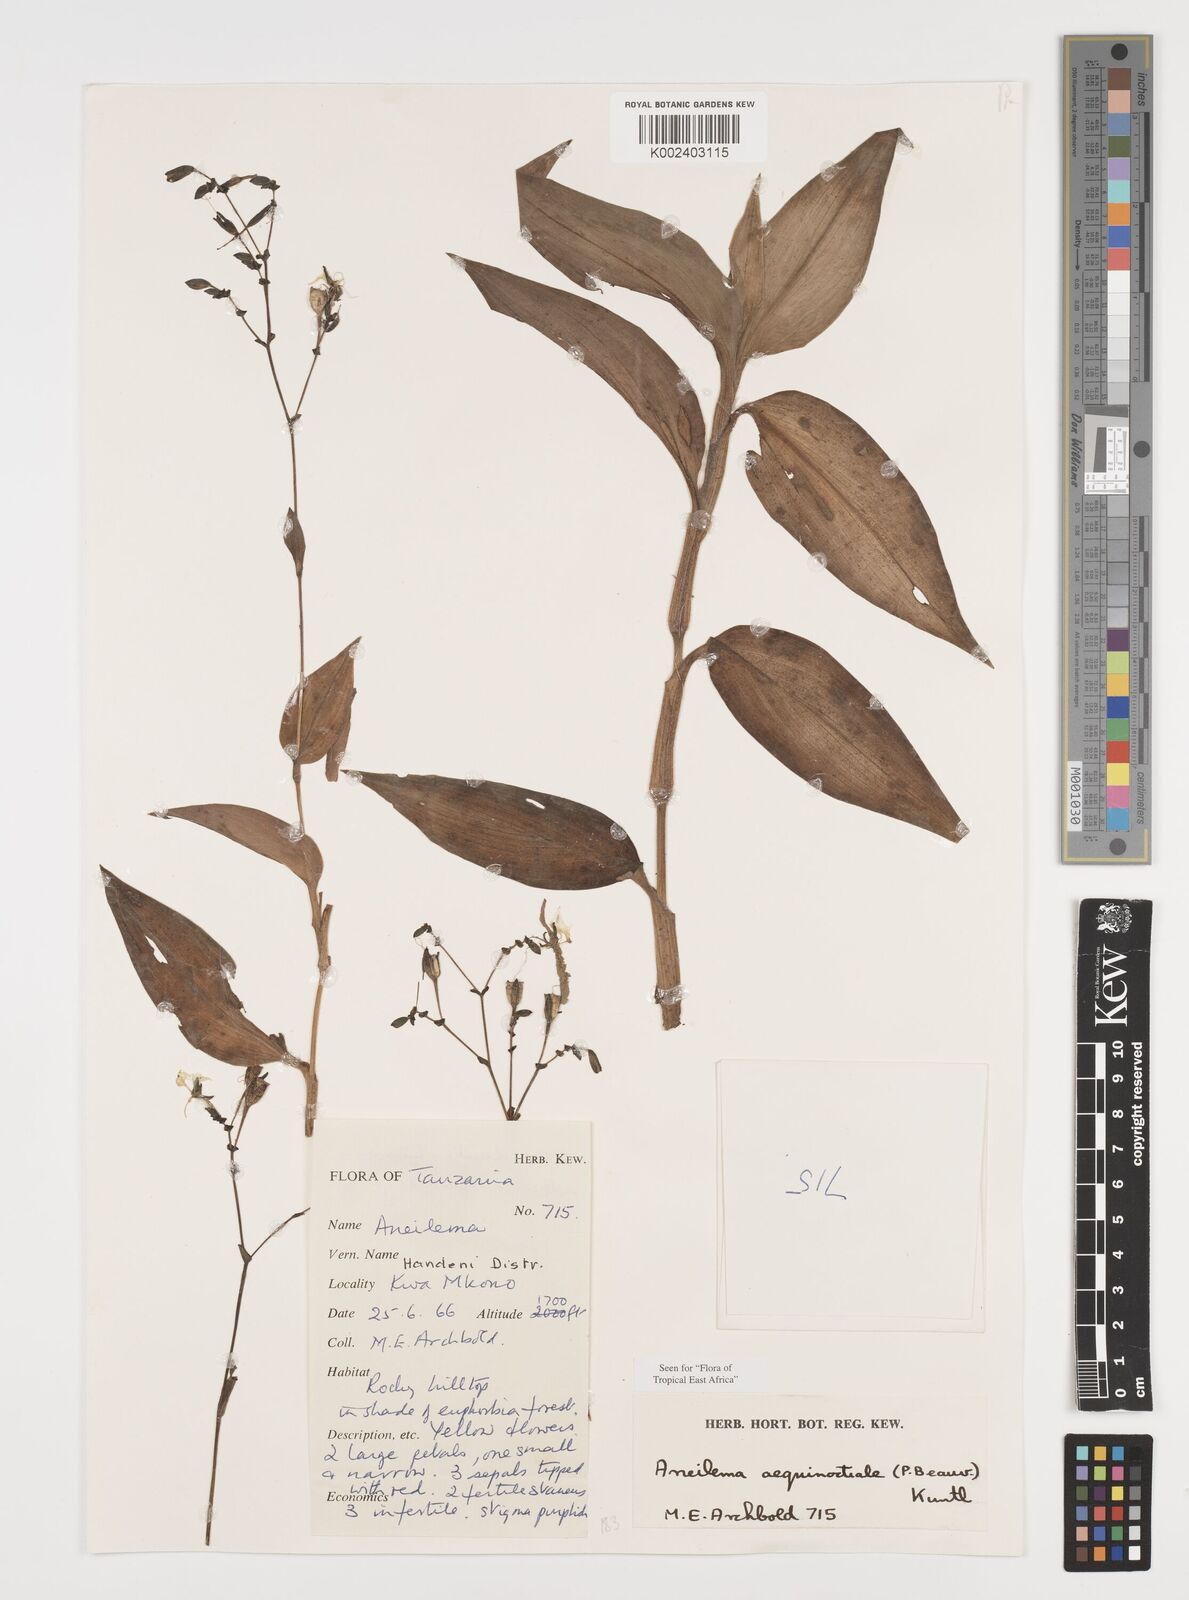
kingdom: Plantae
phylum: Tracheophyta
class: Liliopsida
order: Commelinales
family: Commelinaceae
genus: Aneilema
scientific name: Aneilema aequinoctiale
